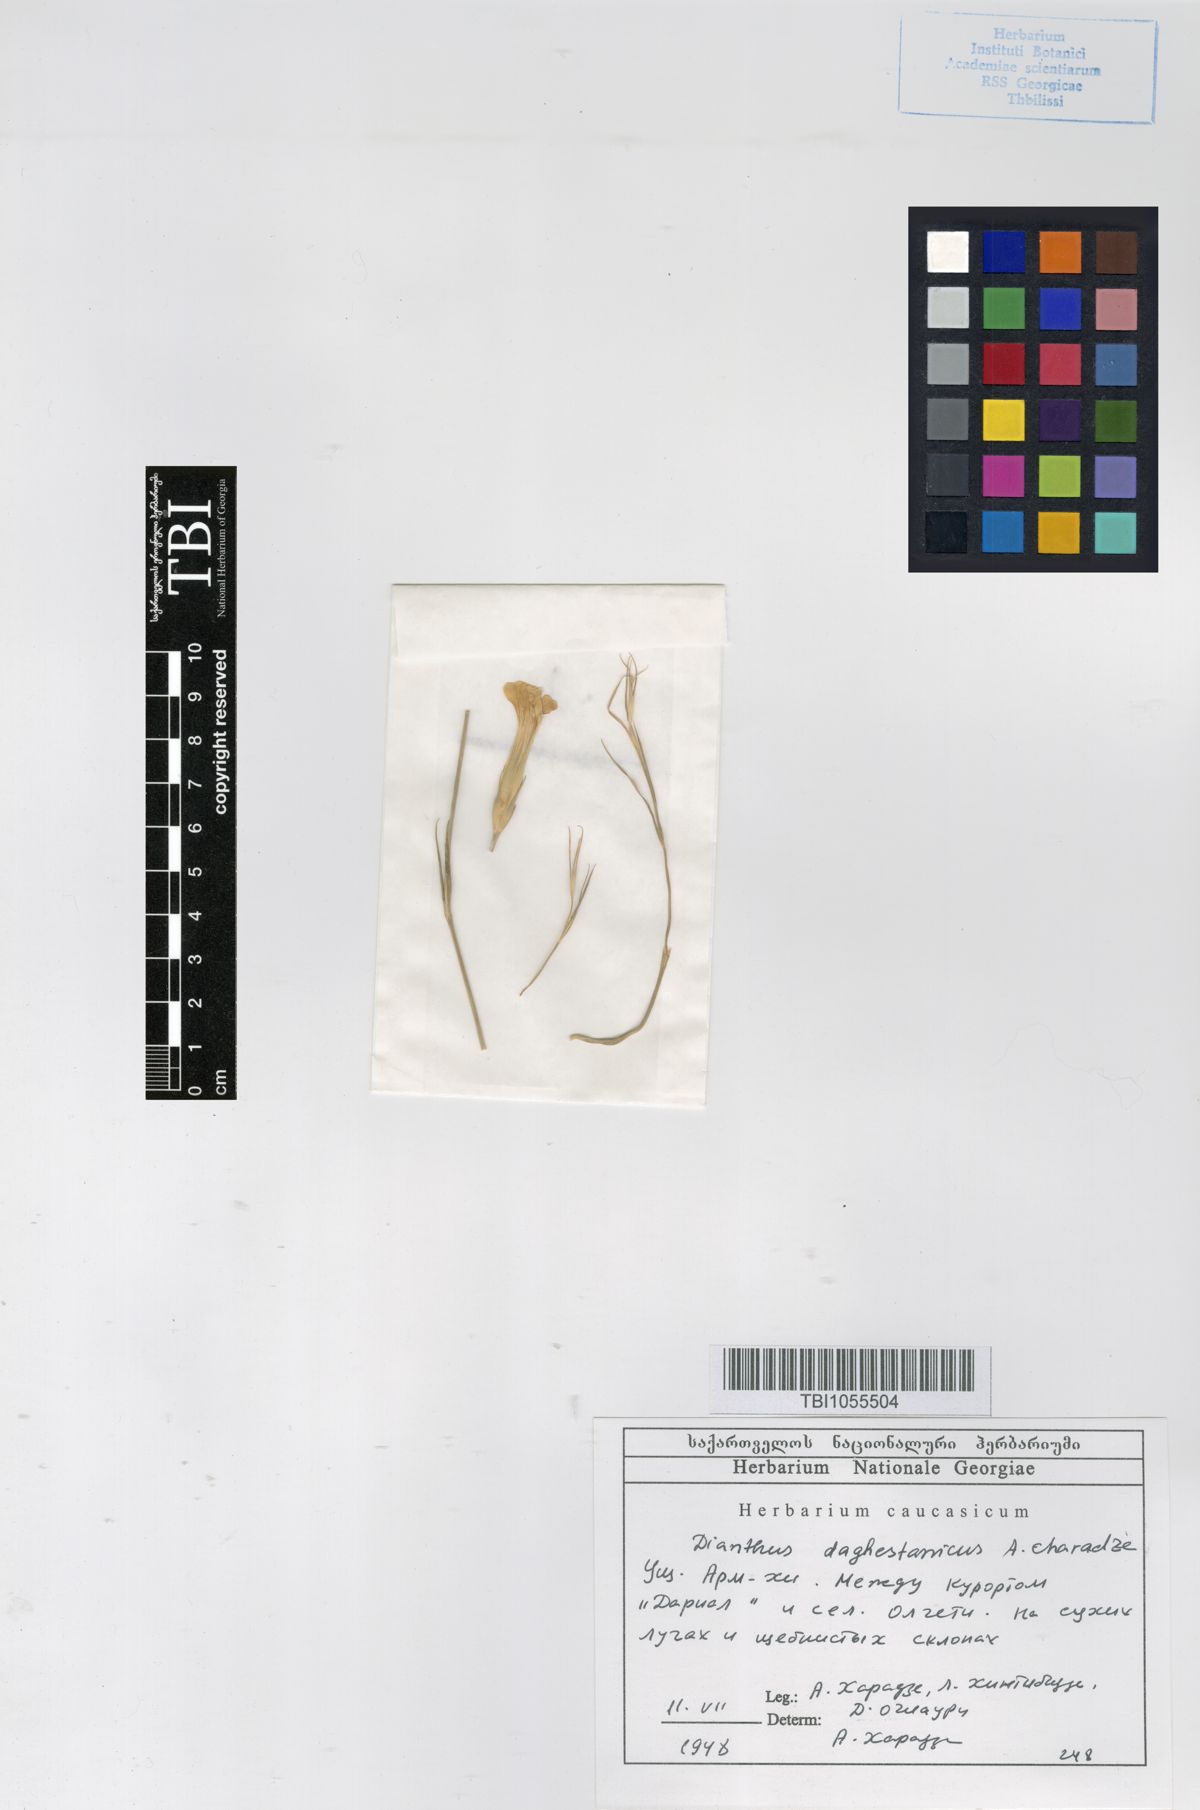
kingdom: Plantae
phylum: Tracheophyta
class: Magnoliopsida
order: Caryophyllales
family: Caryophyllaceae
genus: Dianthus
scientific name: Dianthus daghestanicus
